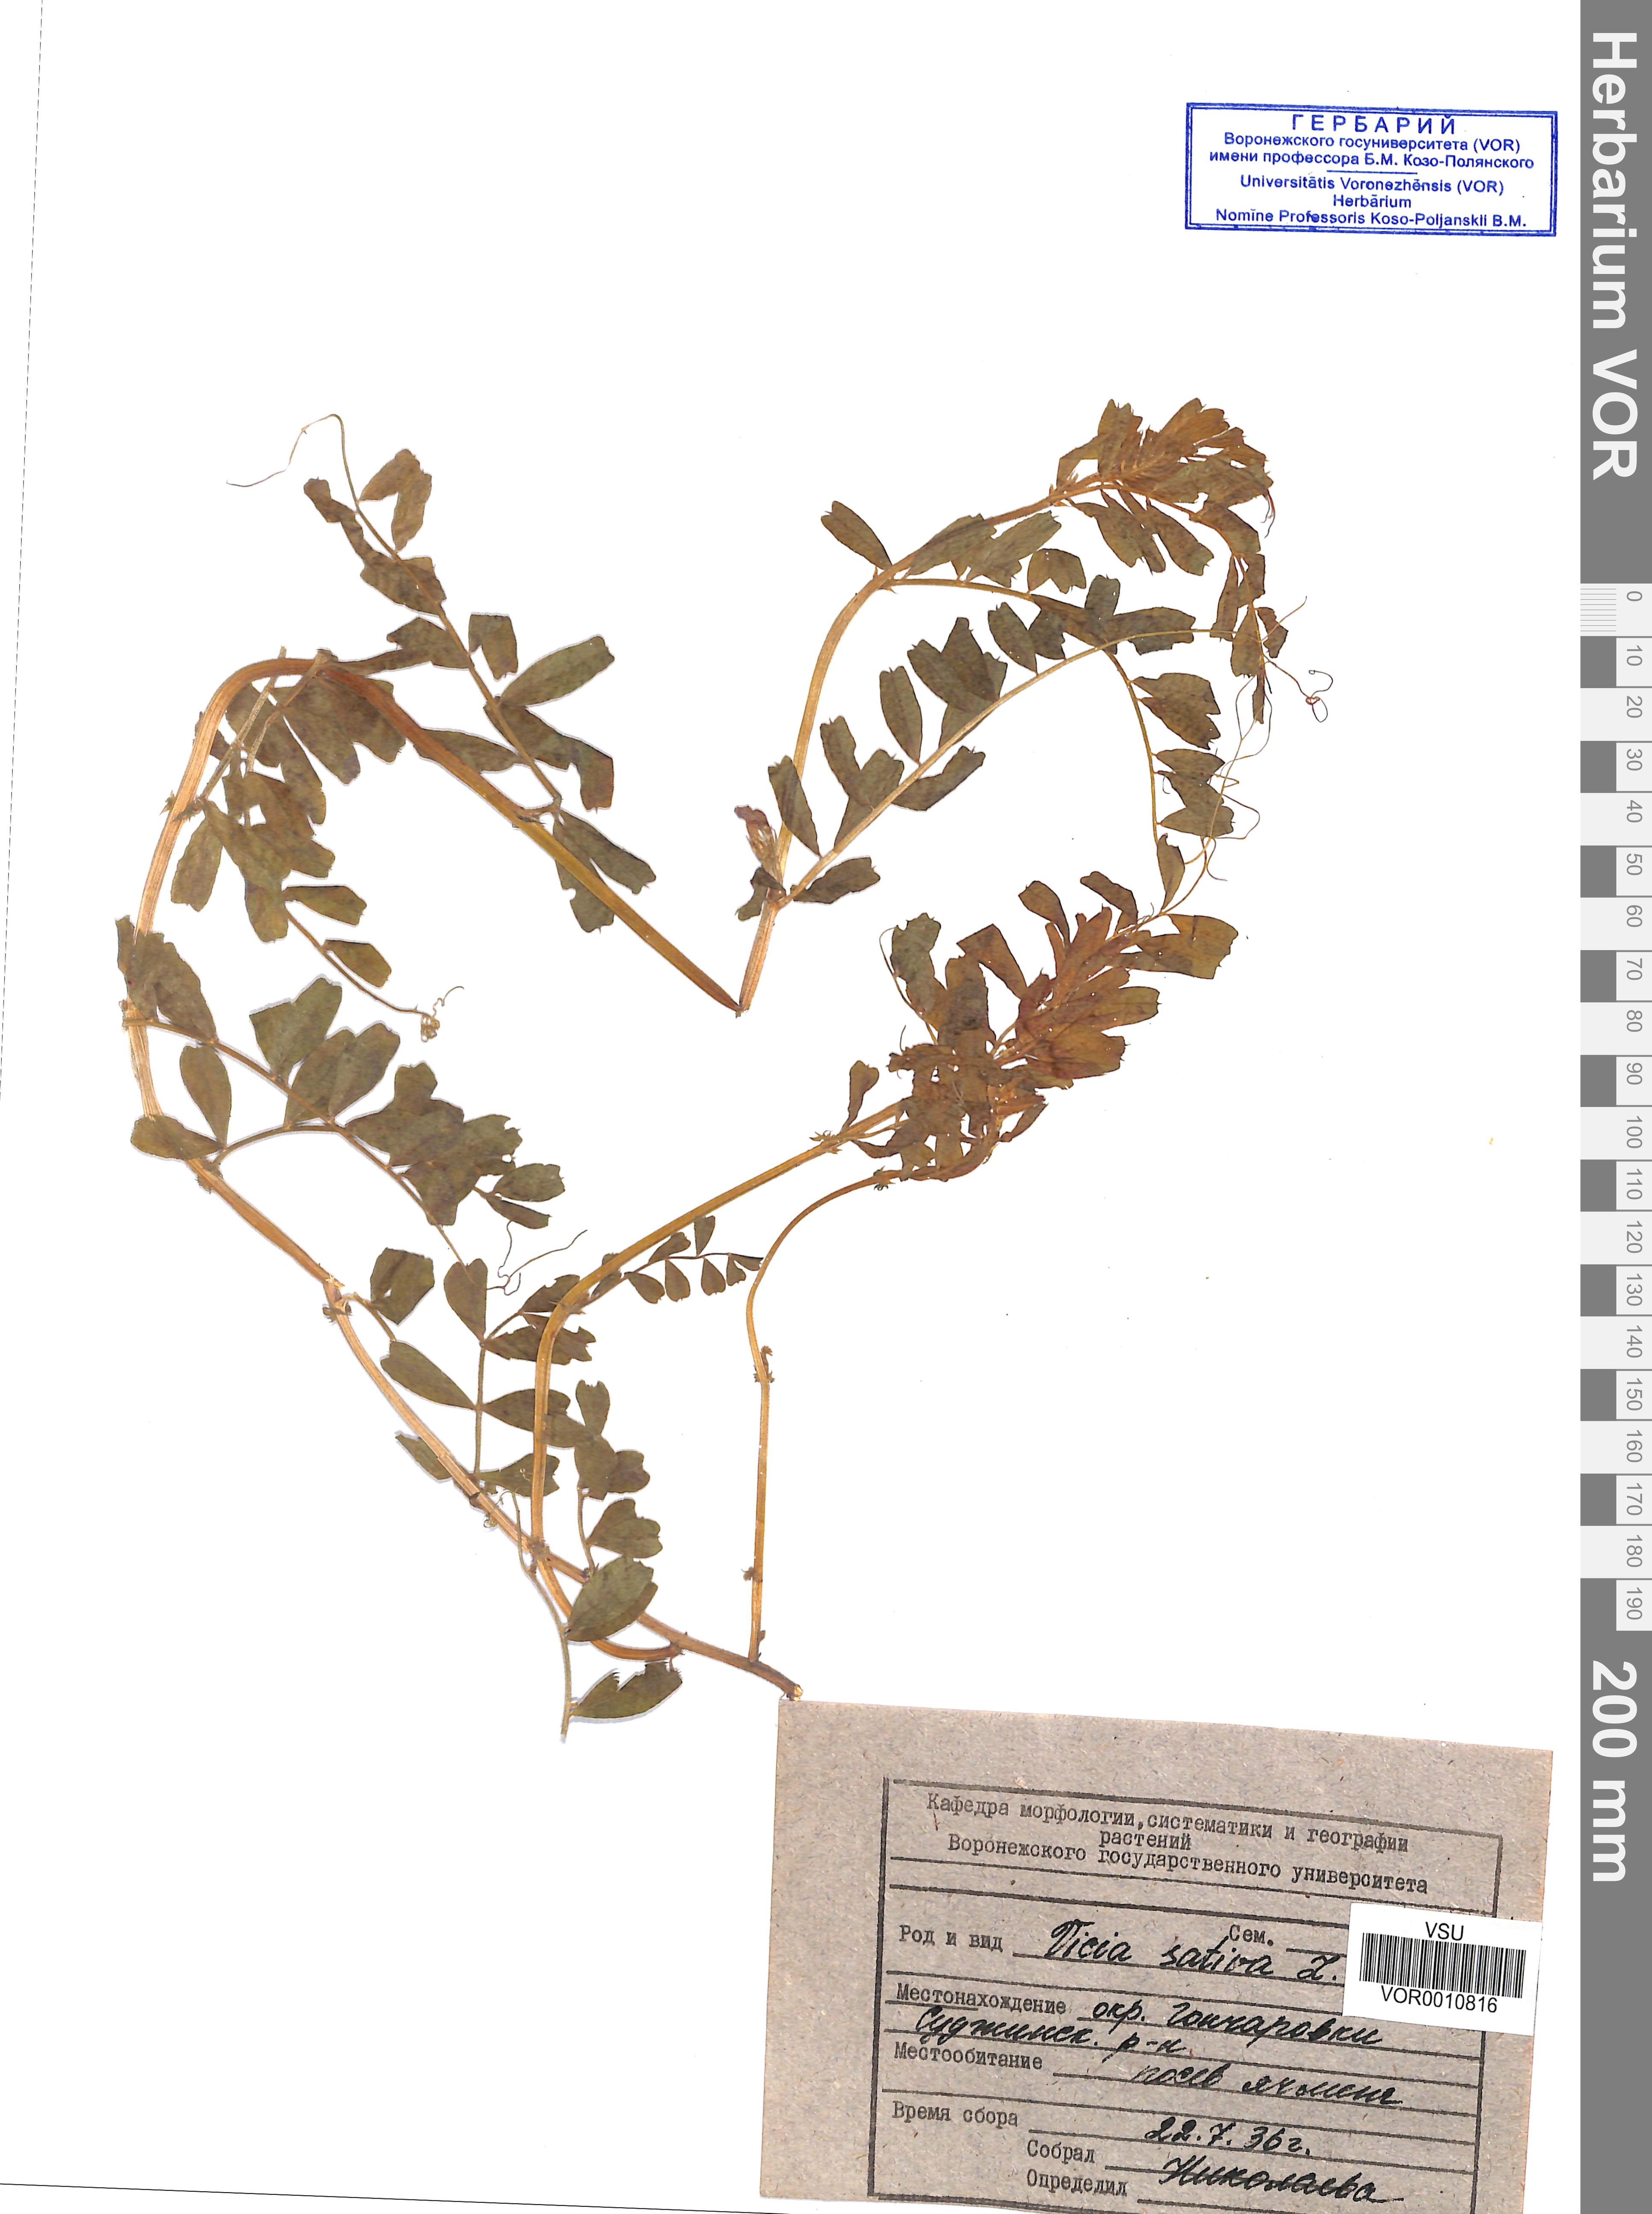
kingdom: Plantae
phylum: Tracheophyta
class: Magnoliopsida
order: Fabales
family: Fabaceae
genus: Vicia
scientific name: Vicia sativa
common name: Garden vetch
